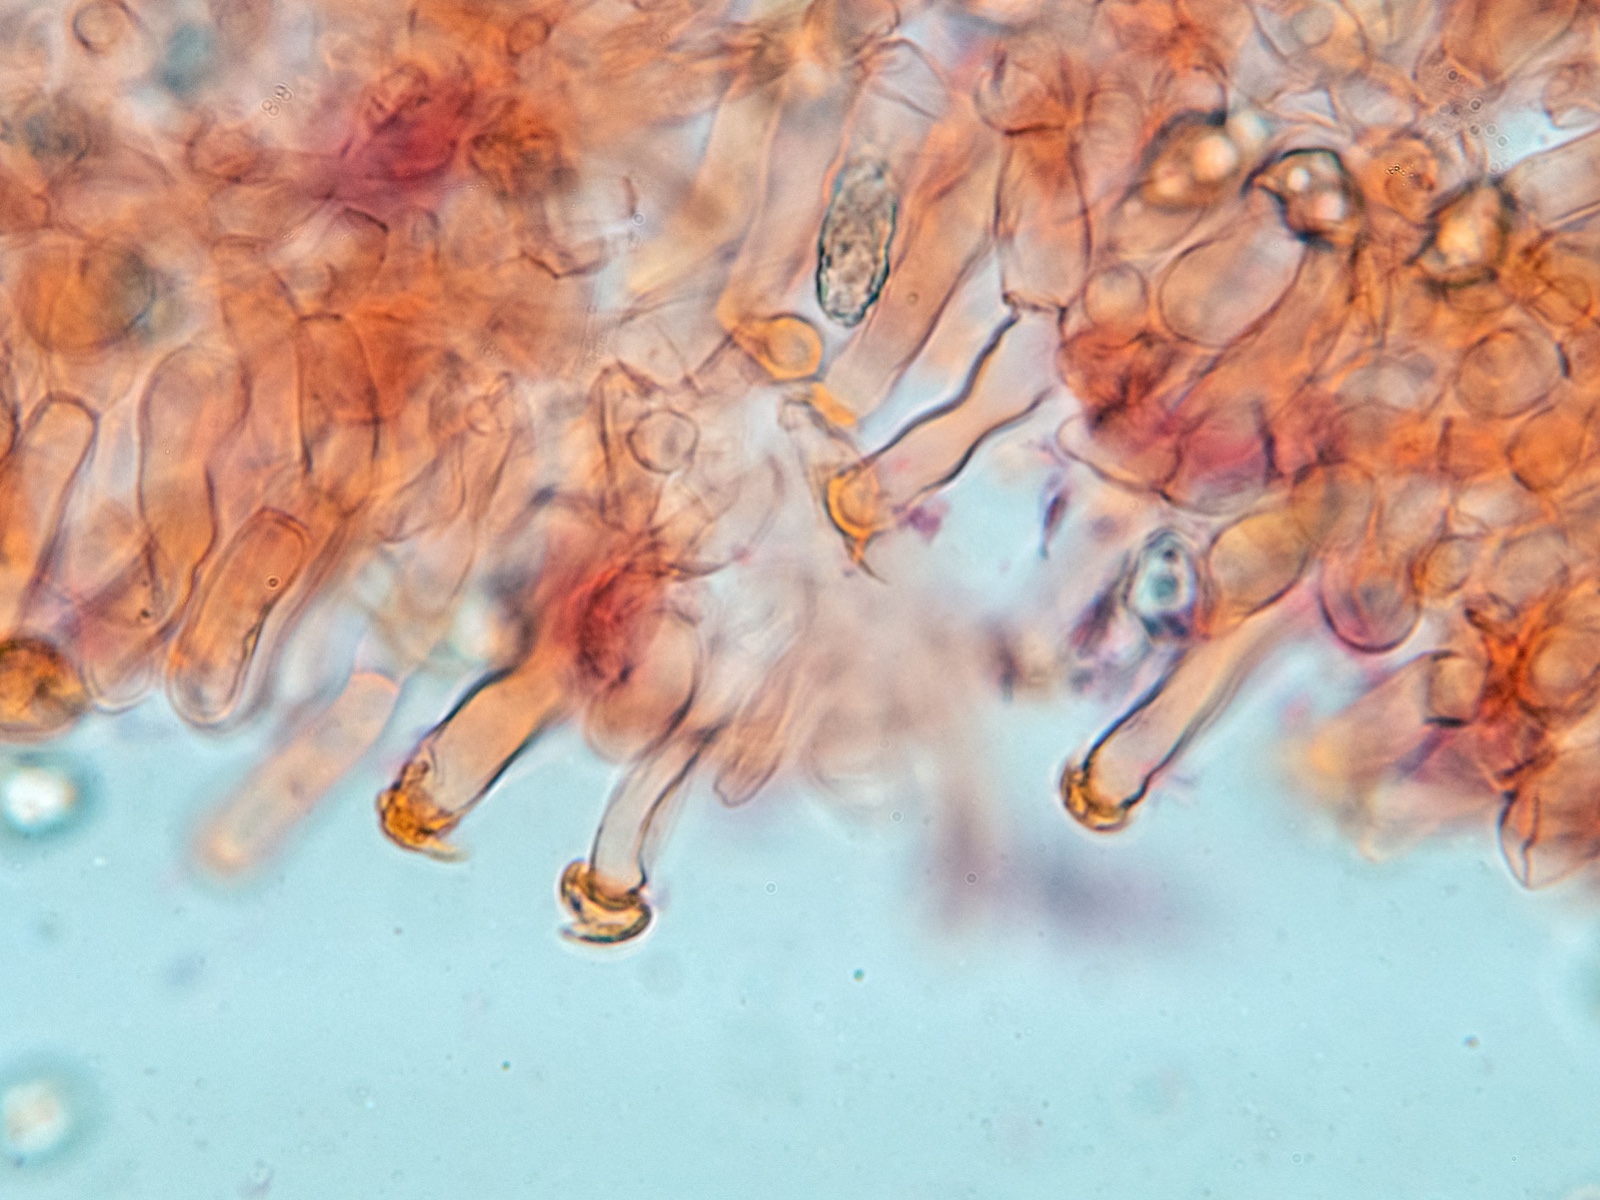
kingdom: Fungi
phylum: Basidiomycota
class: Agaricomycetes
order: Agaricales
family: Entolomataceae
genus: Entoloma
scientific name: Entoloma hebes
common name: krat-rødblad
